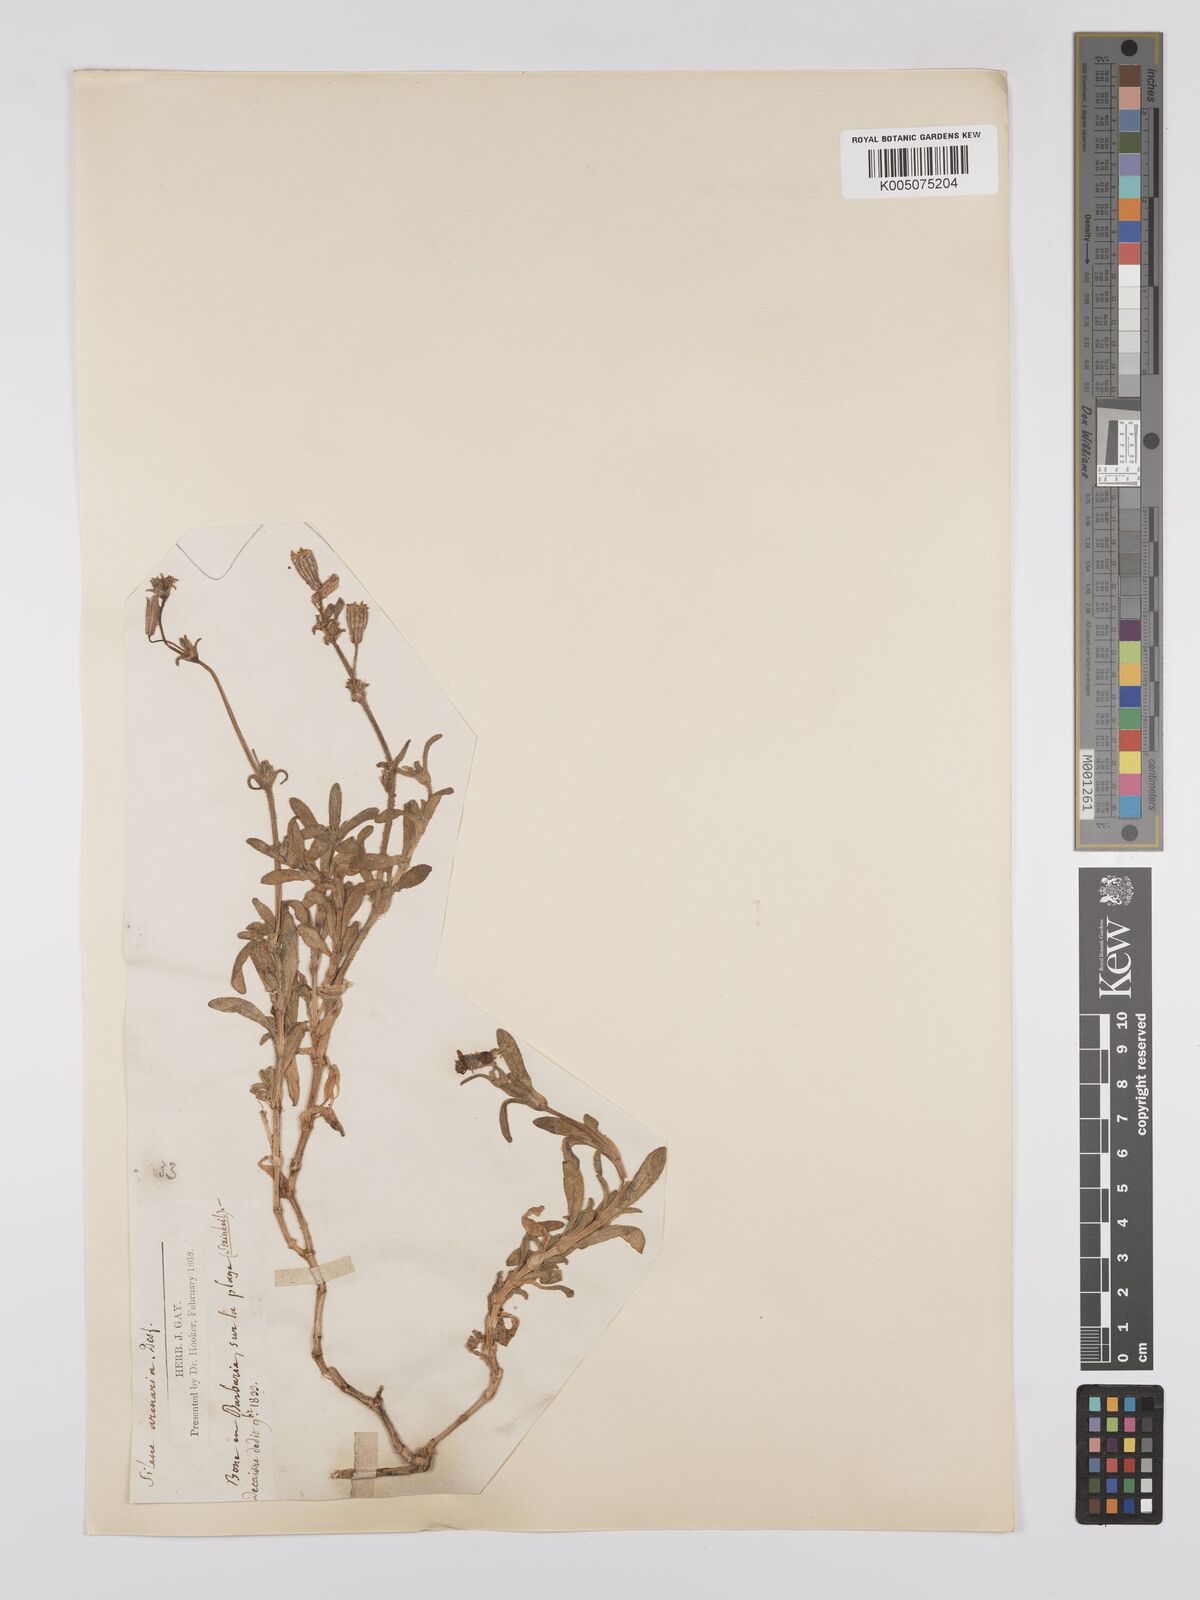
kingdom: Plantae
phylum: Tracheophyta
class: Magnoliopsida
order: Caryophyllales
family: Caryophyllaceae
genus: Silene
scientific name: Silene ramosissima
